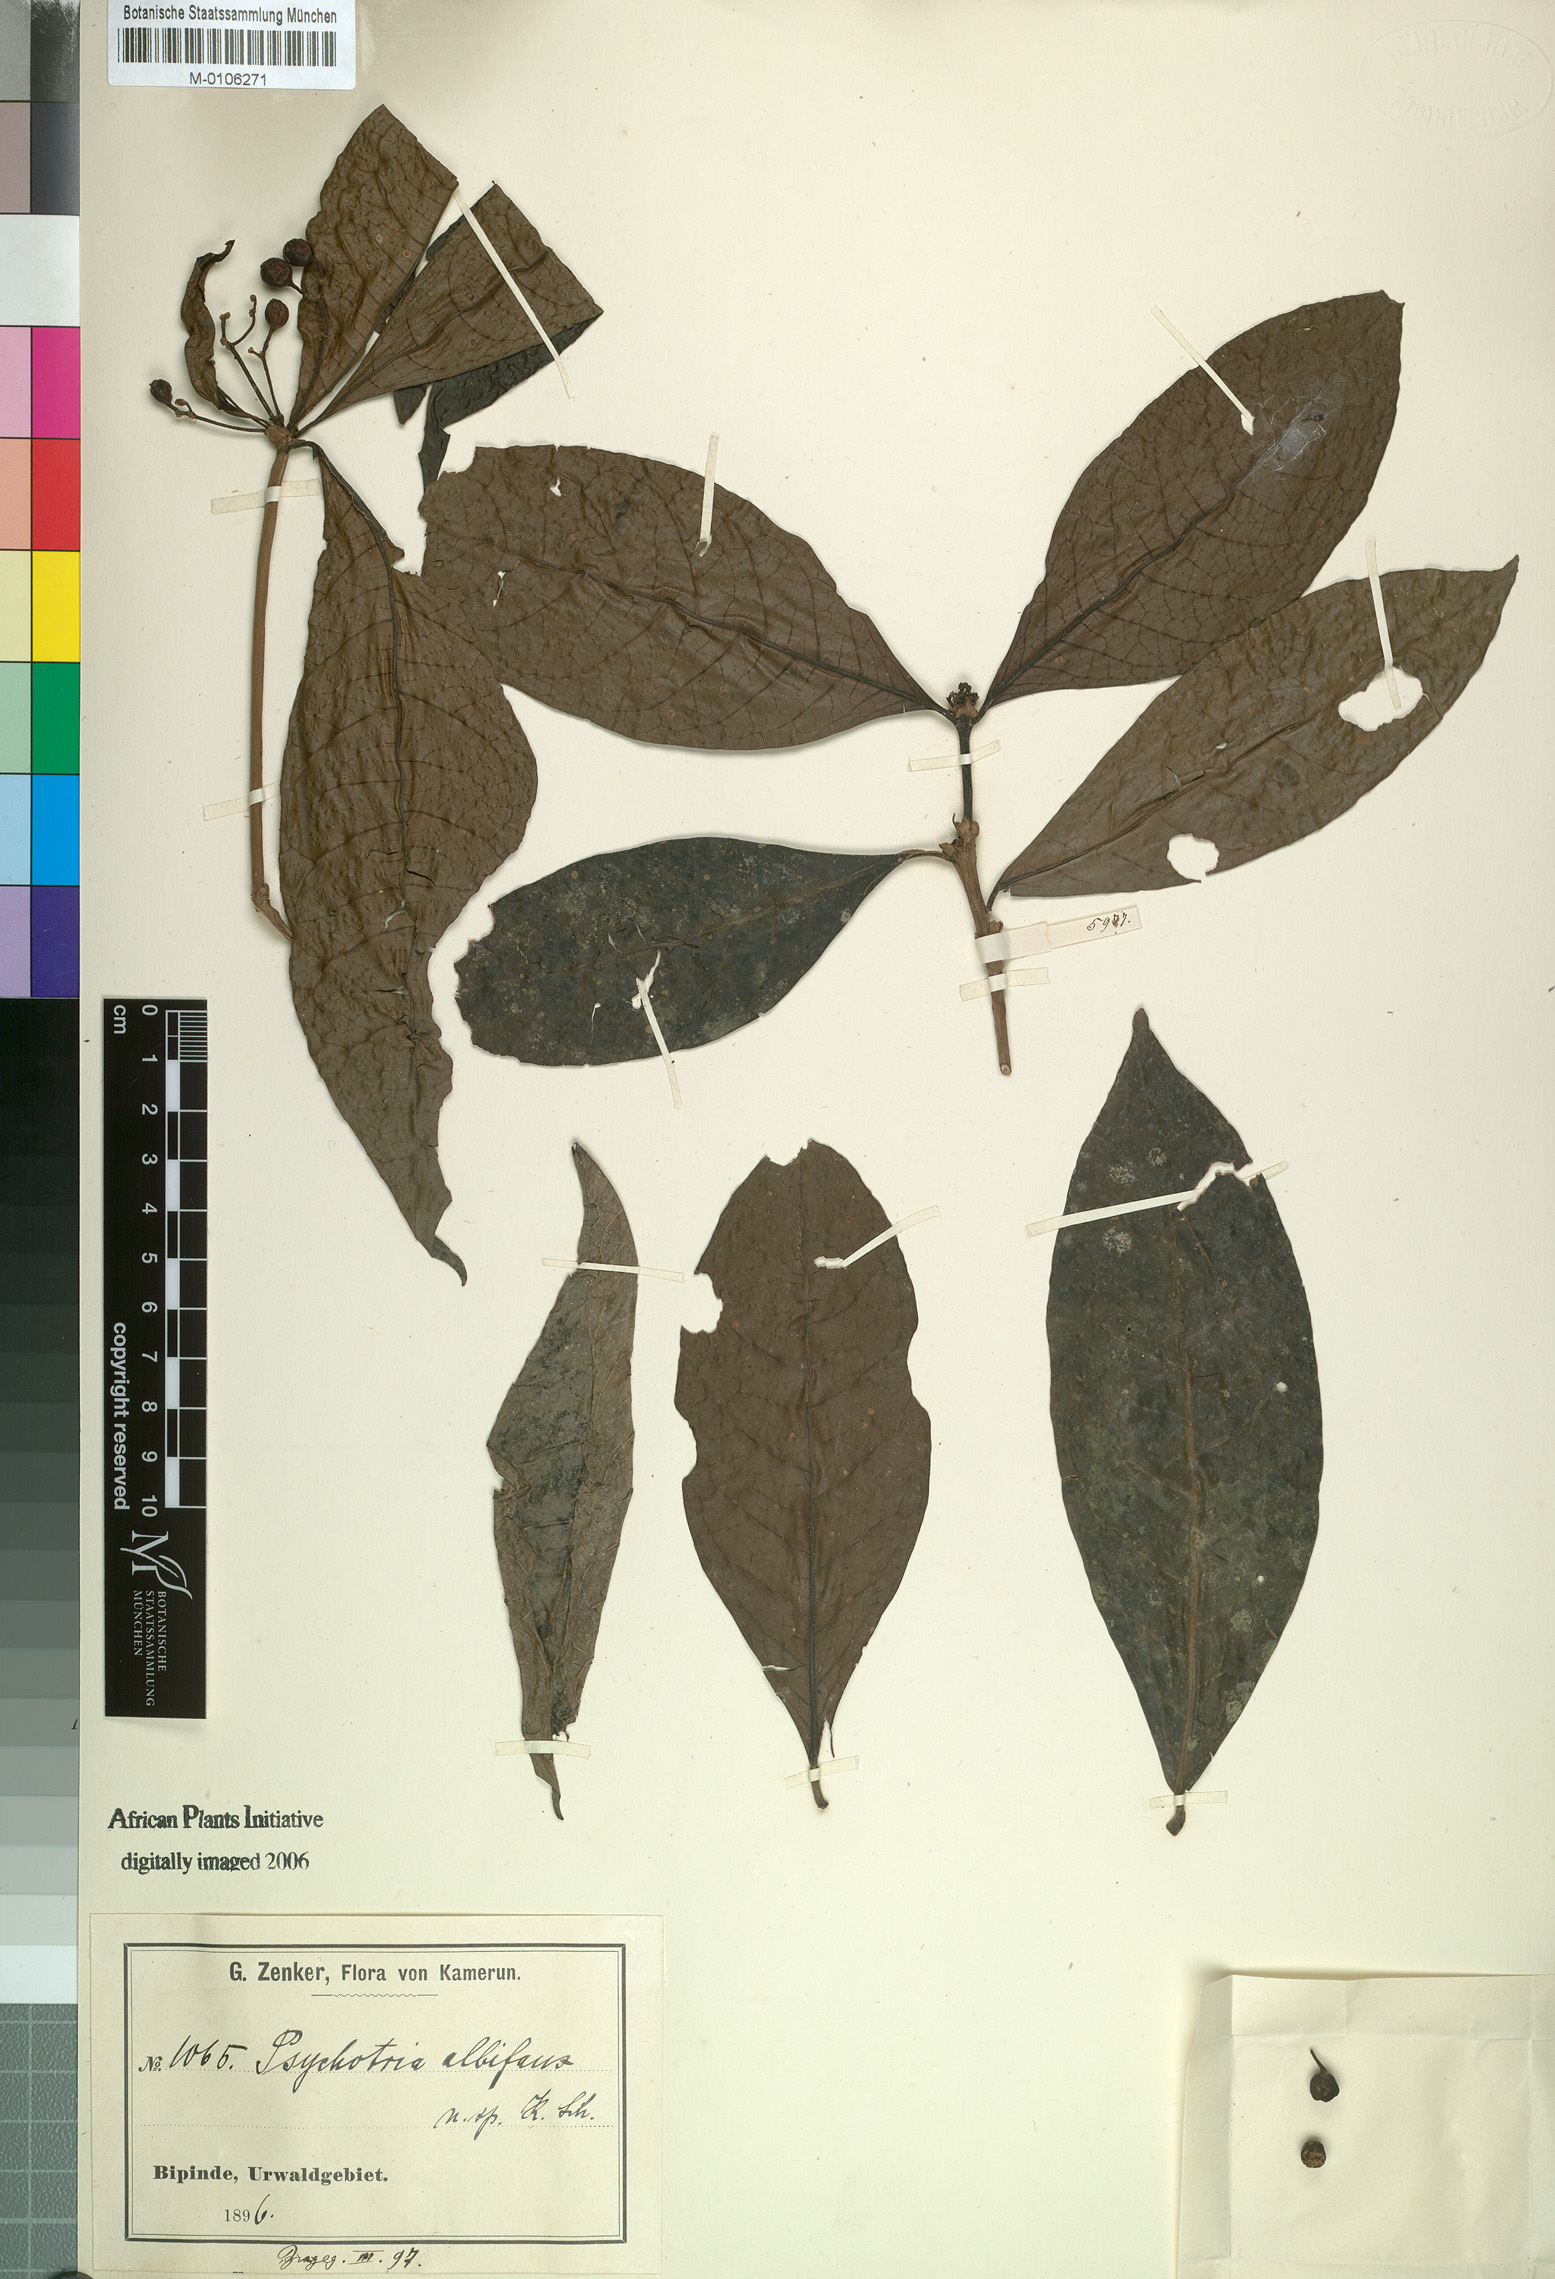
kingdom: Plantae
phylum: Tracheophyta
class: Magnoliopsida
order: Gentianales
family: Rubiaceae
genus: Eumachia
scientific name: Eumachia sciadephora
